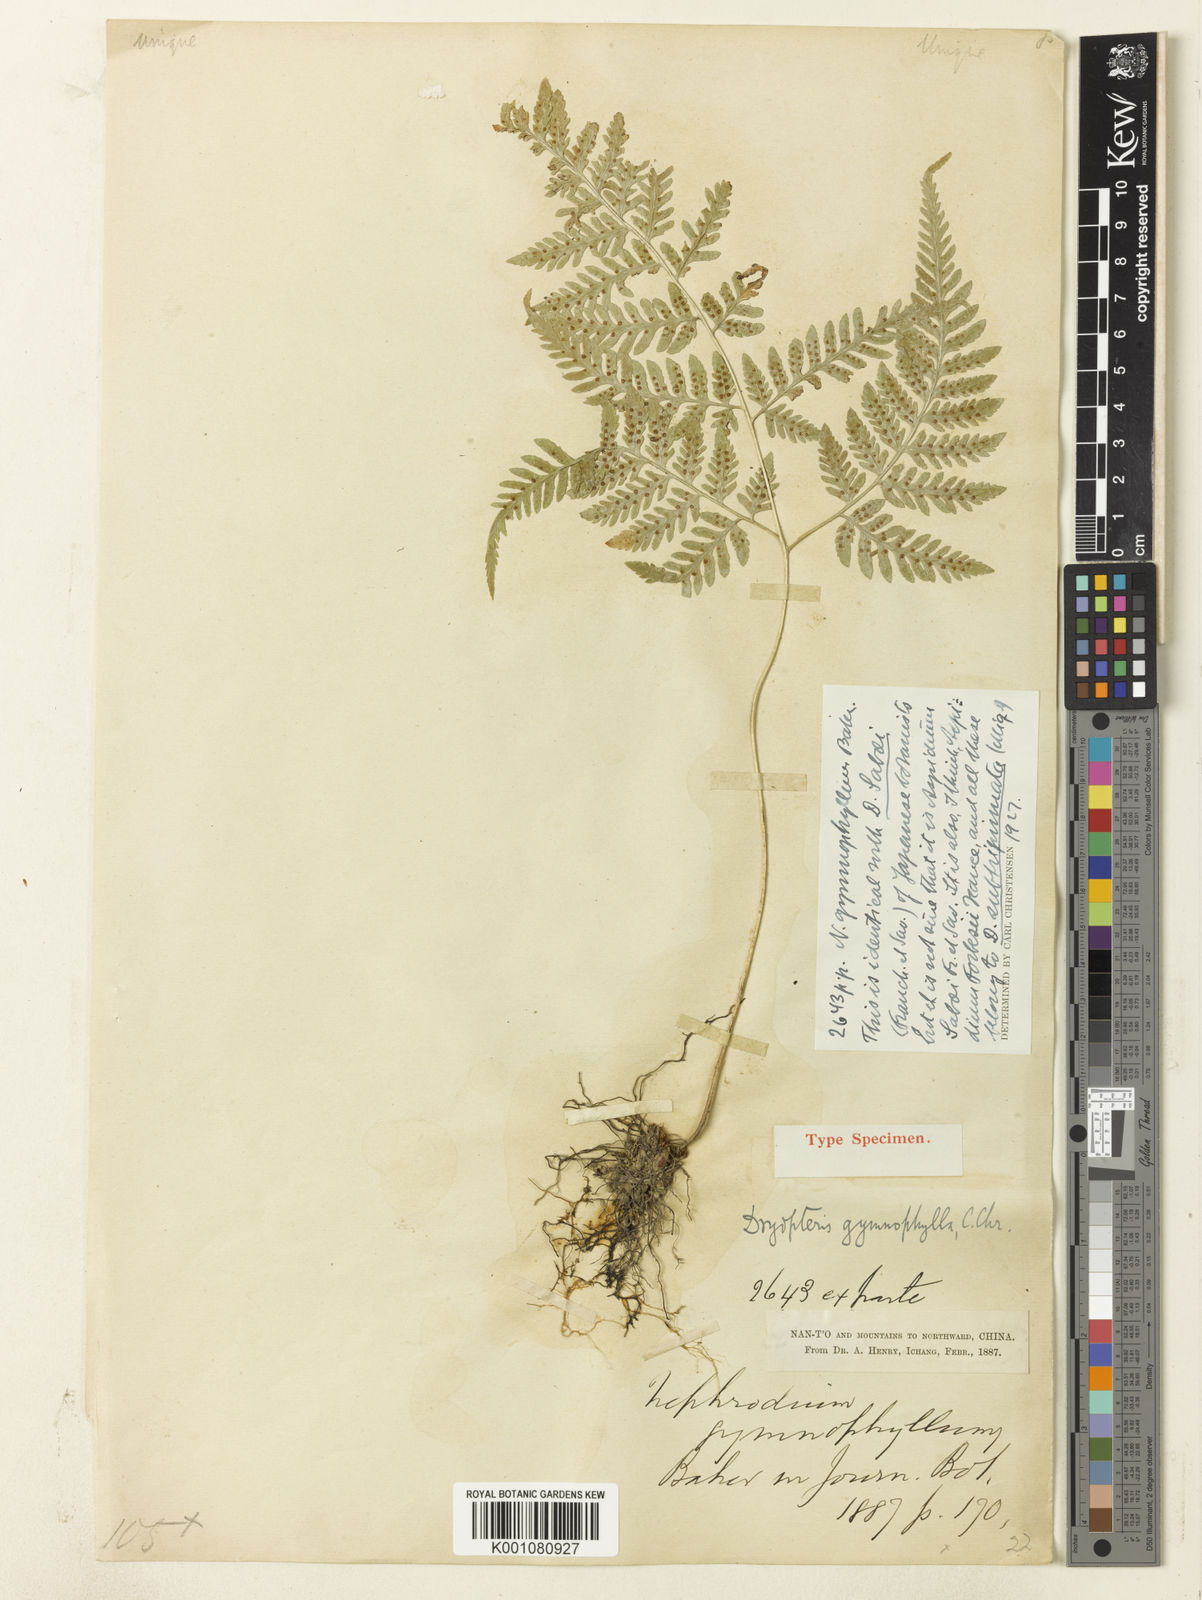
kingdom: Plantae
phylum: Tracheophyta
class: Polypodiopsida
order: Polypodiales
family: Dryopteridaceae
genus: Dryopteris
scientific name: Dryopteris gymnophylla
